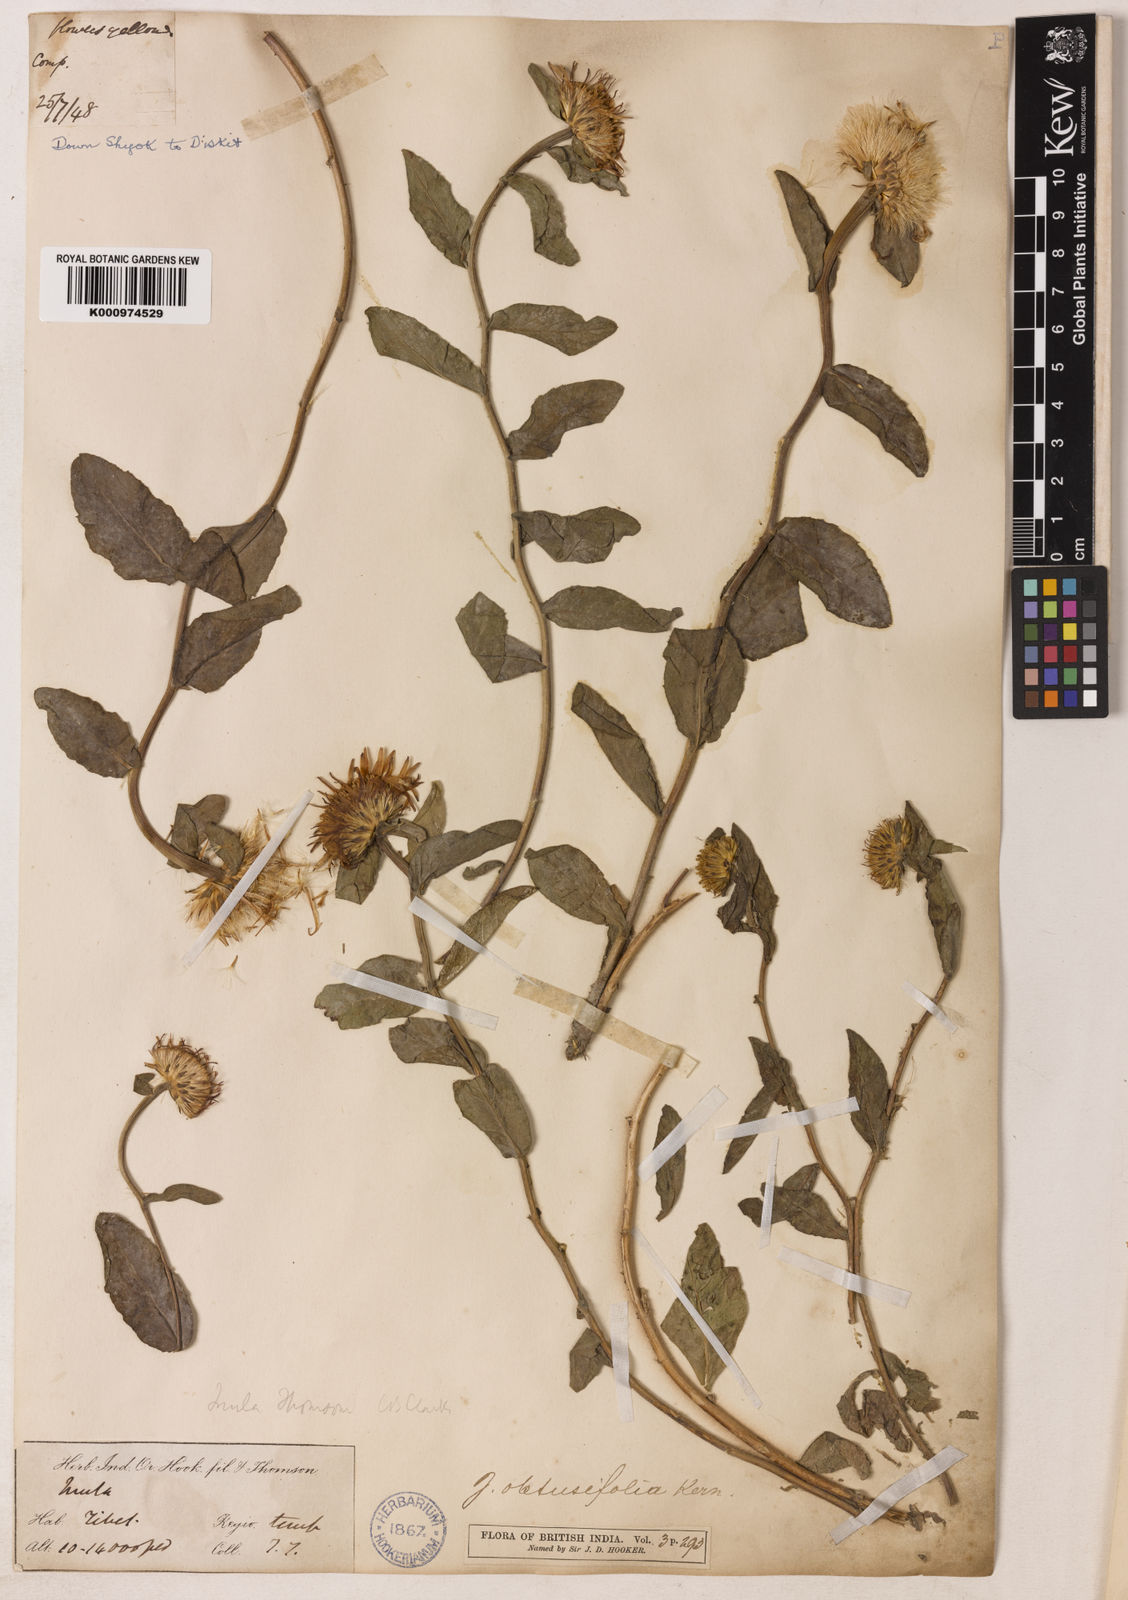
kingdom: Plantae
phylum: Tracheophyta
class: Magnoliopsida
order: Asterales
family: Asteraceae
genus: Inula
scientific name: Inula obtusifolia
